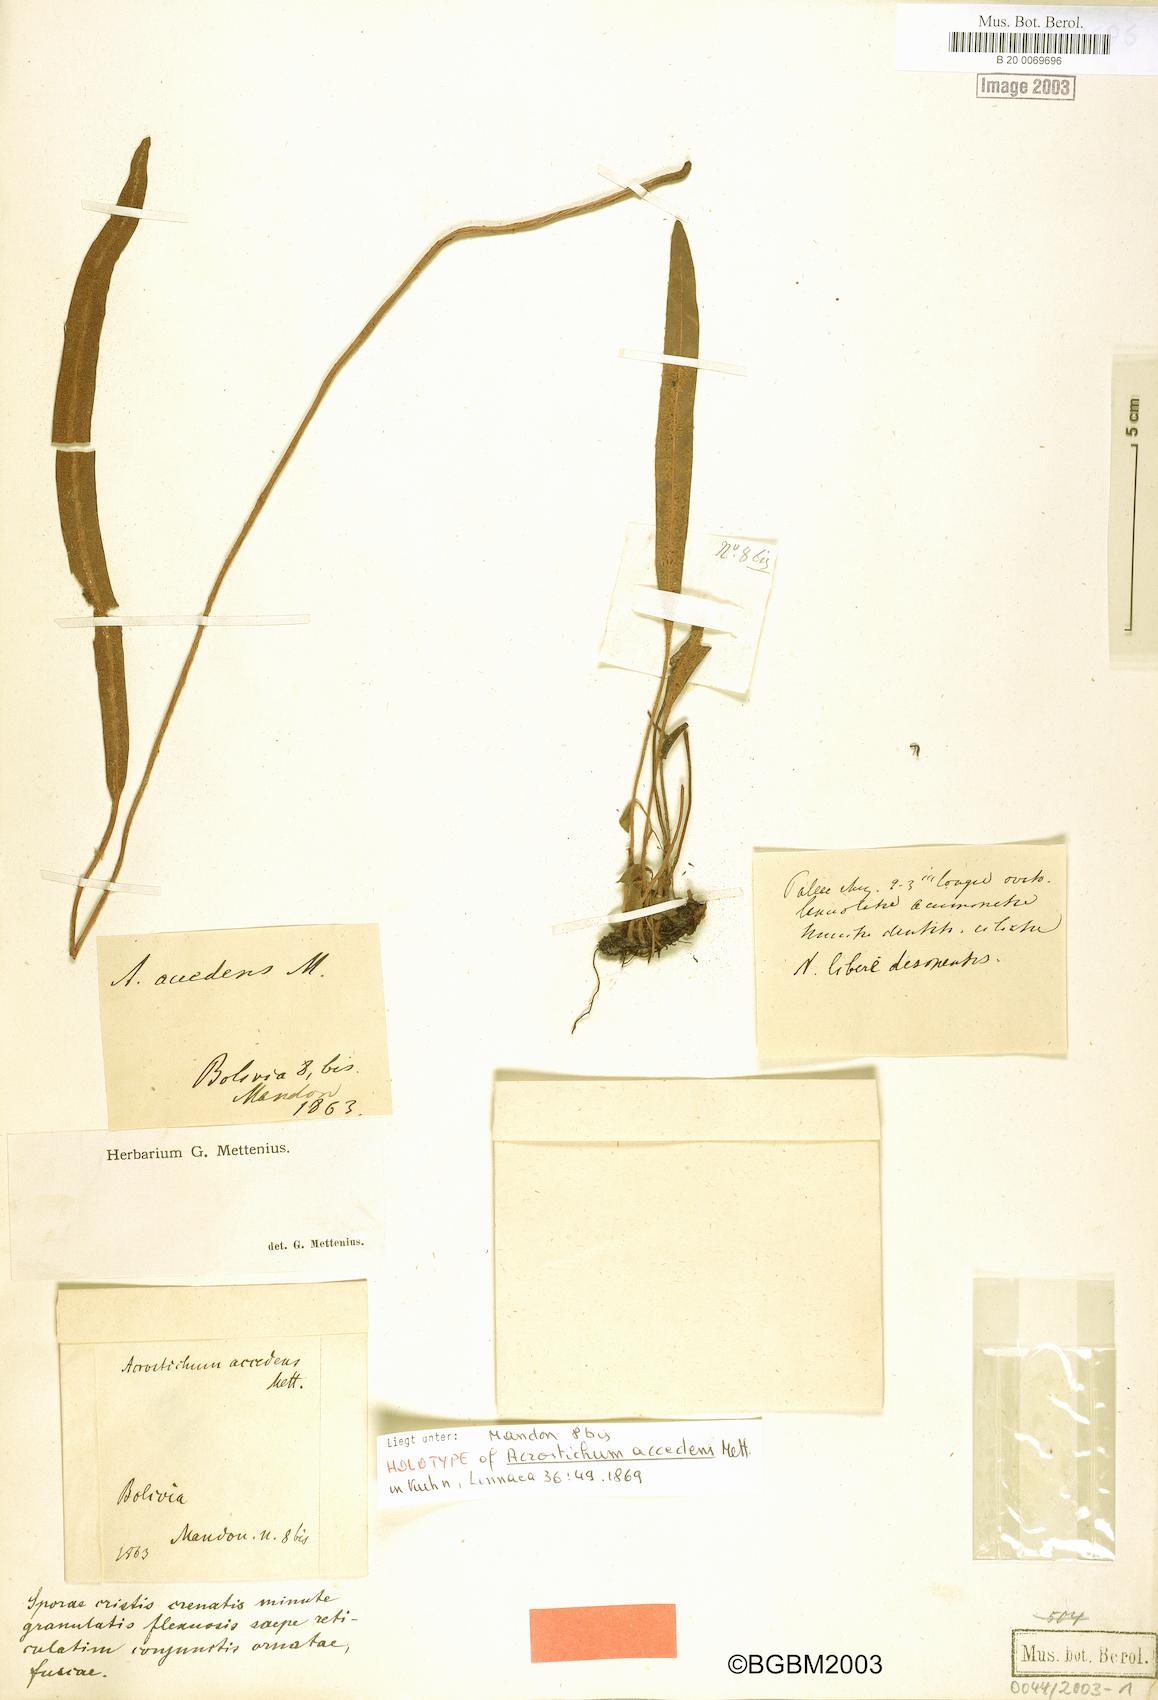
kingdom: Plantae
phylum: Tracheophyta
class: Polypodiopsida
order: Polypodiales
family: Dryopteridaceae
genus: Elaphoglossum
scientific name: Elaphoglossum accedens
